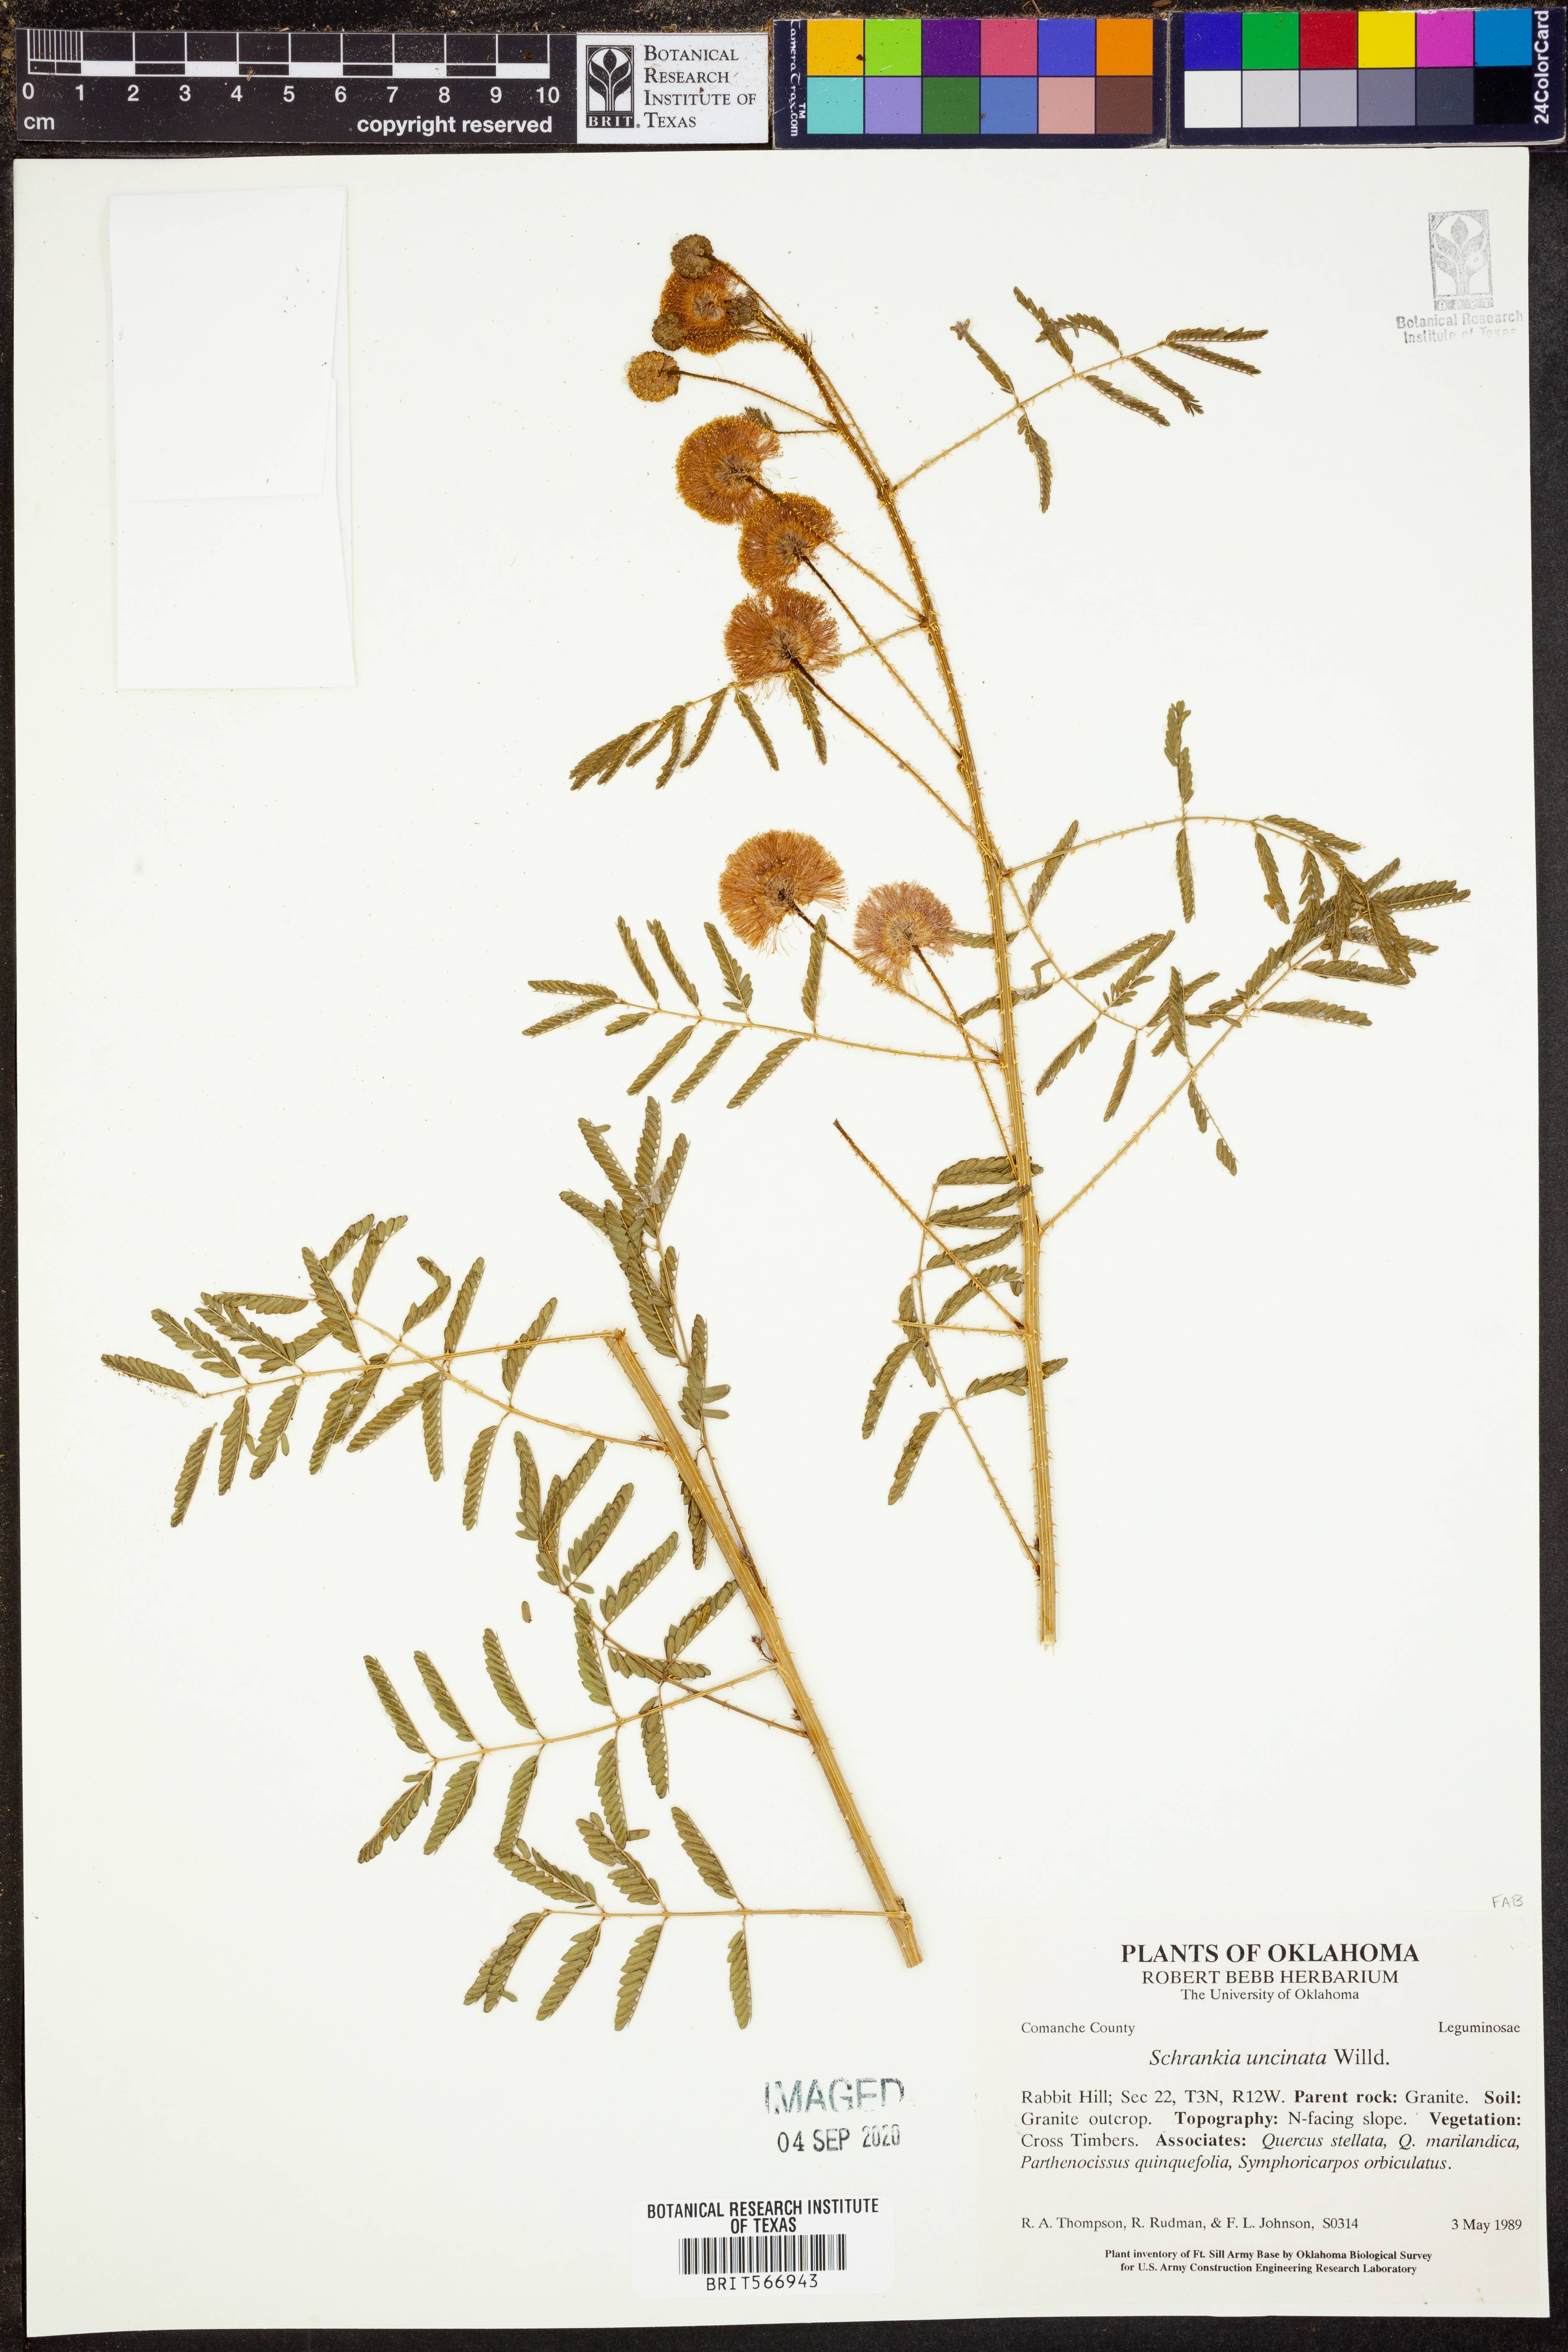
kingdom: Plantae
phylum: Tracheophyta
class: Magnoliopsida
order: Fabales
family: Fabaceae
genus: Mimosa
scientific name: Mimosa quadrivalvis
